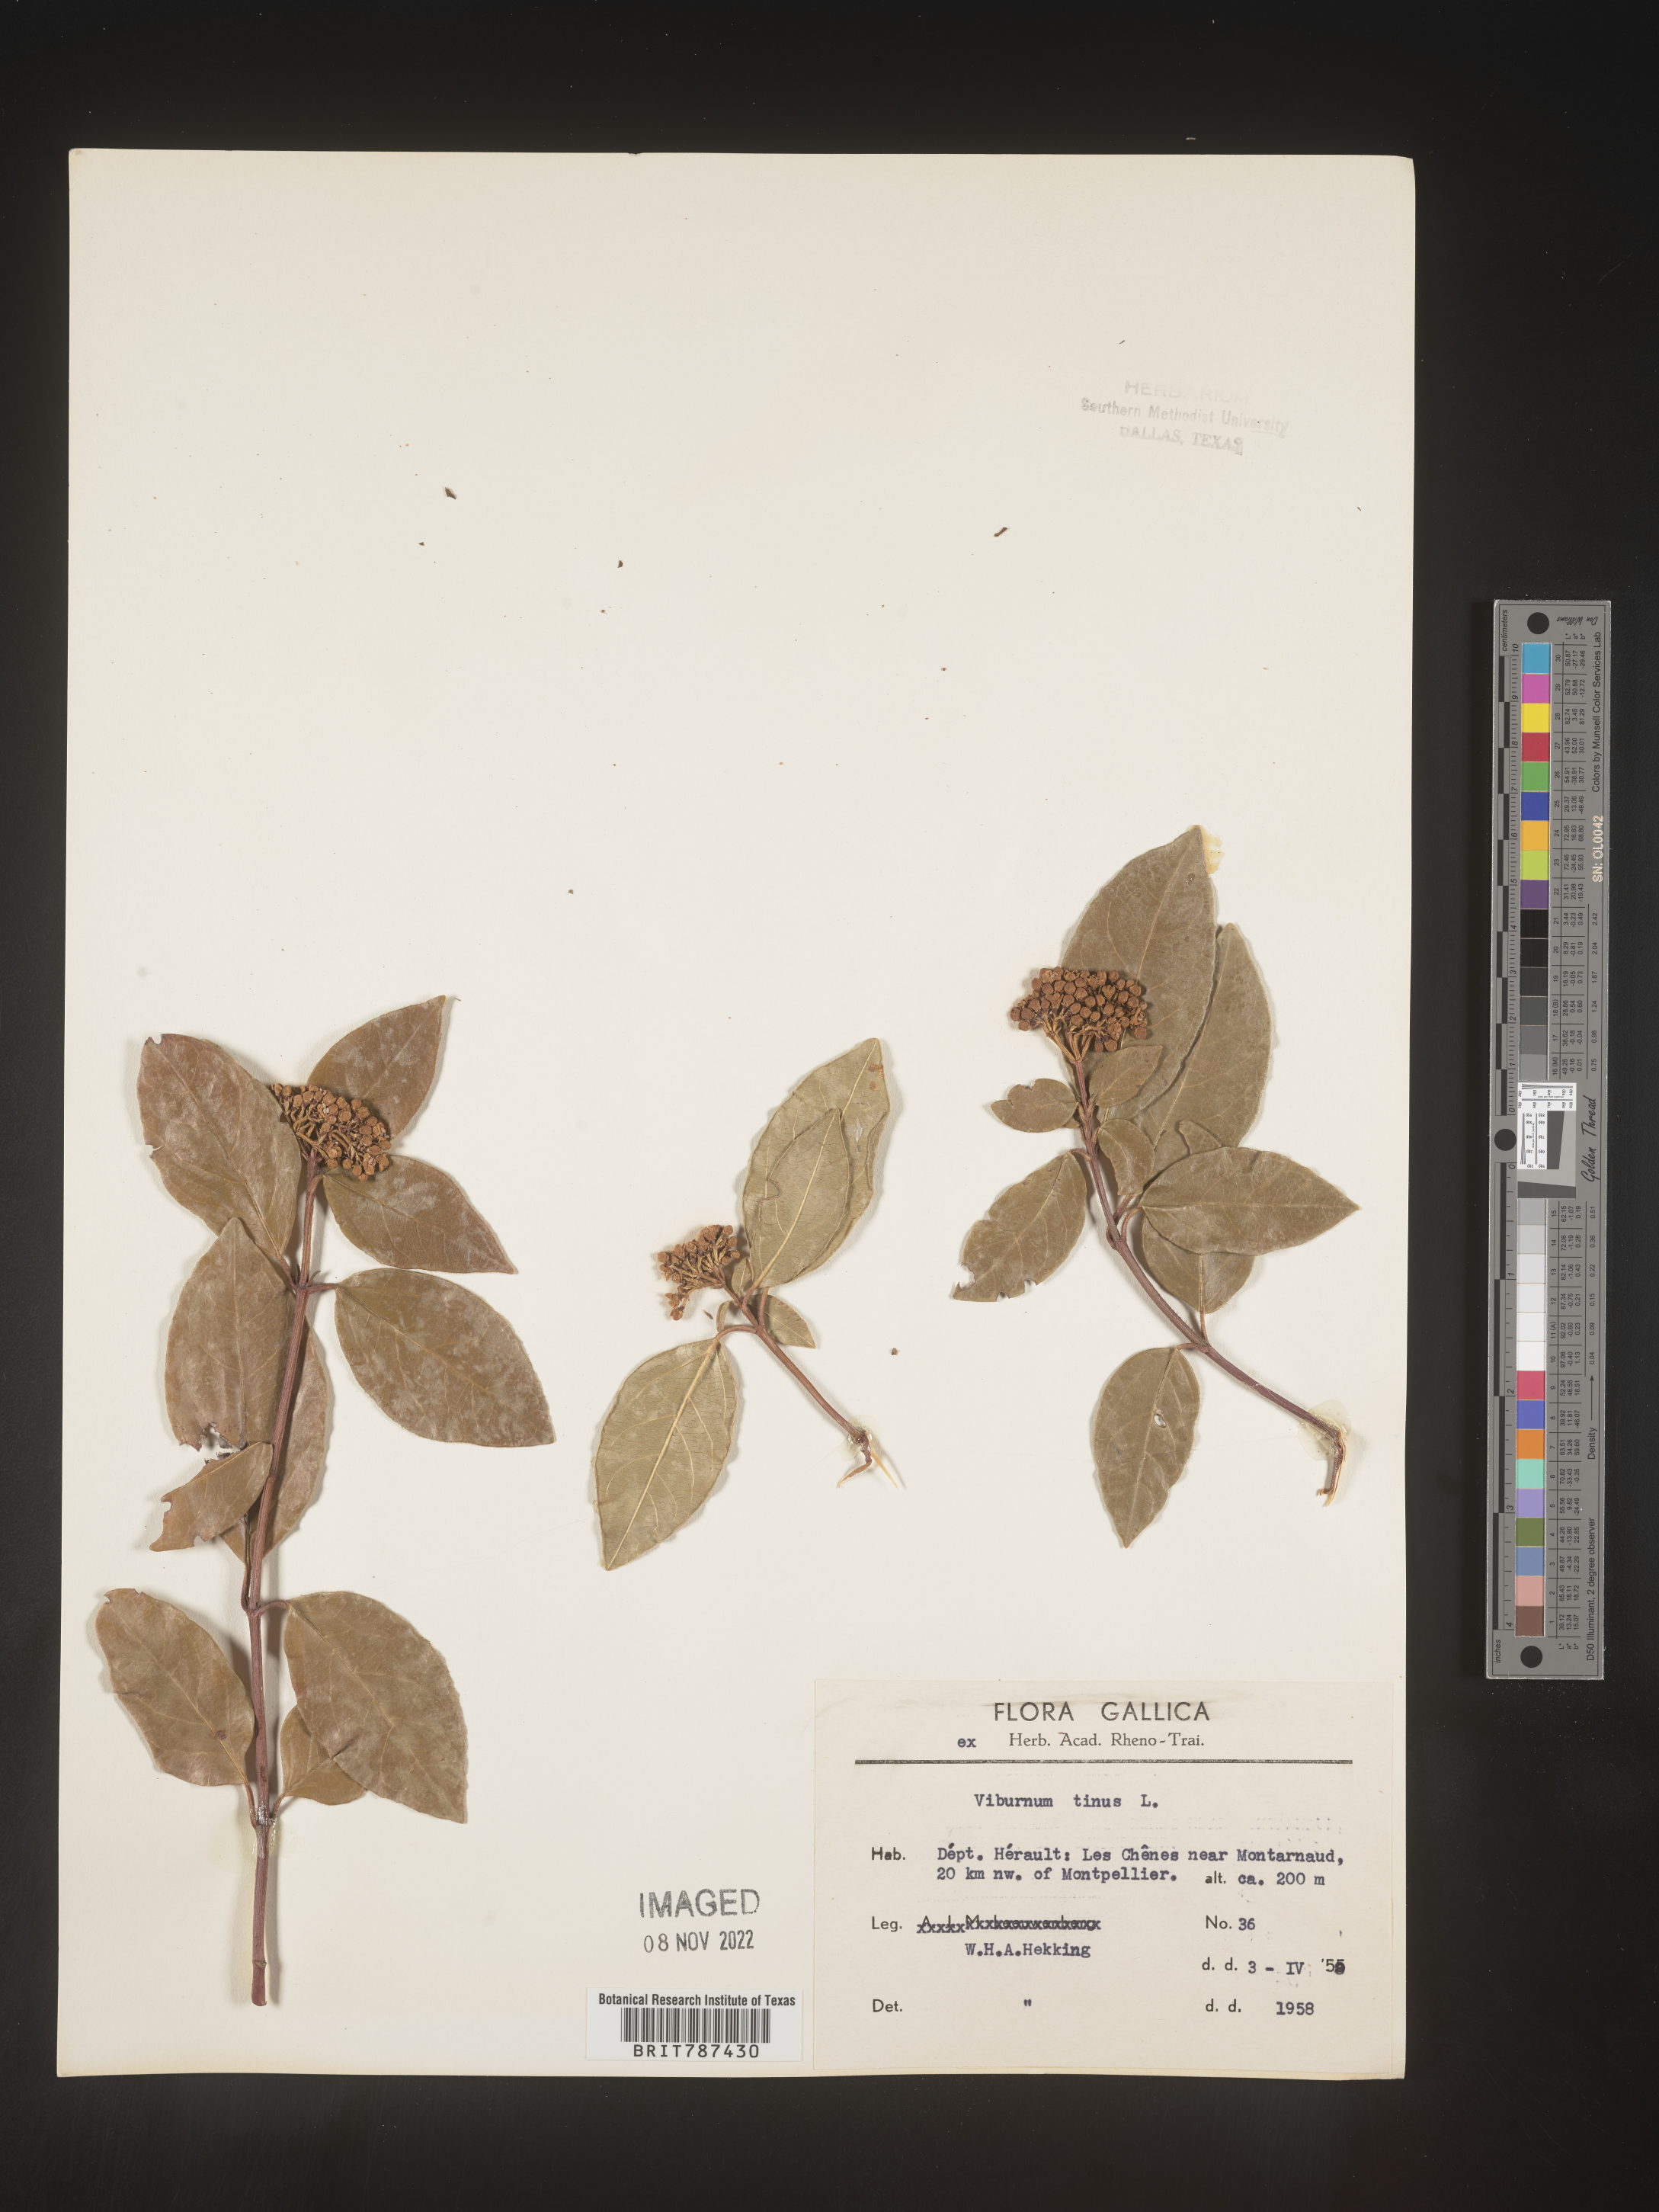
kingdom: Plantae
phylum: Tracheophyta
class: Magnoliopsida
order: Dipsacales
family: Viburnaceae
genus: Viburnum
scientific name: Viburnum
